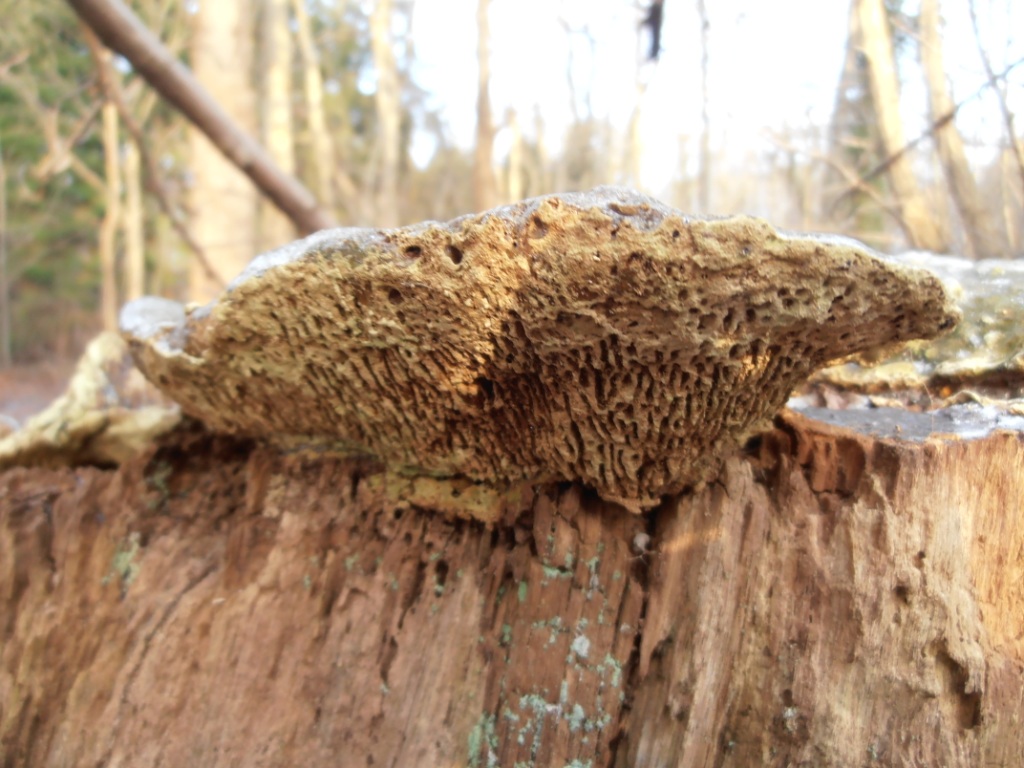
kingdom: Fungi
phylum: Basidiomycota
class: Agaricomycetes
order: Polyporales
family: Fomitopsidaceae
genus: Daedalea
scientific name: Daedalea quercina
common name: ege-labyrintsvamp
